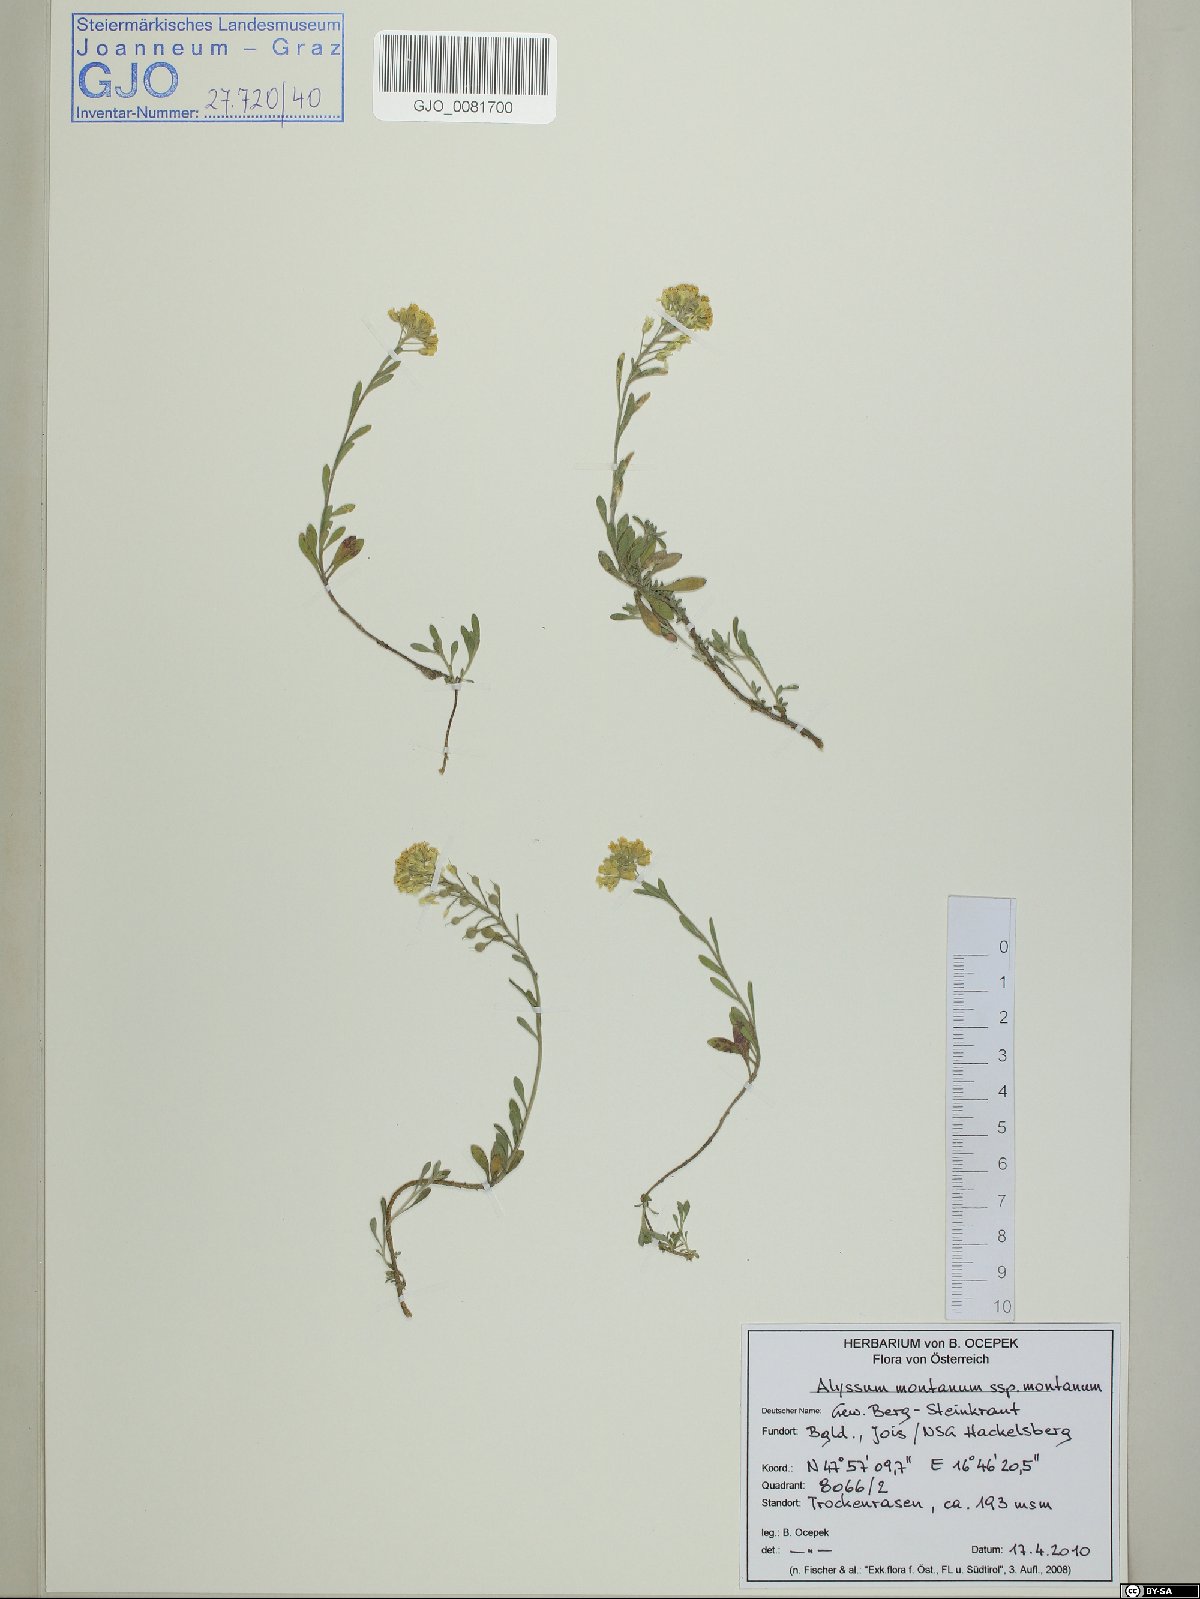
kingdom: Plantae
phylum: Tracheophyta
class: Magnoliopsida
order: Brassicales
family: Brassicaceae
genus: Alyssum
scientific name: Alyssum montanum
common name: Mountain alison
